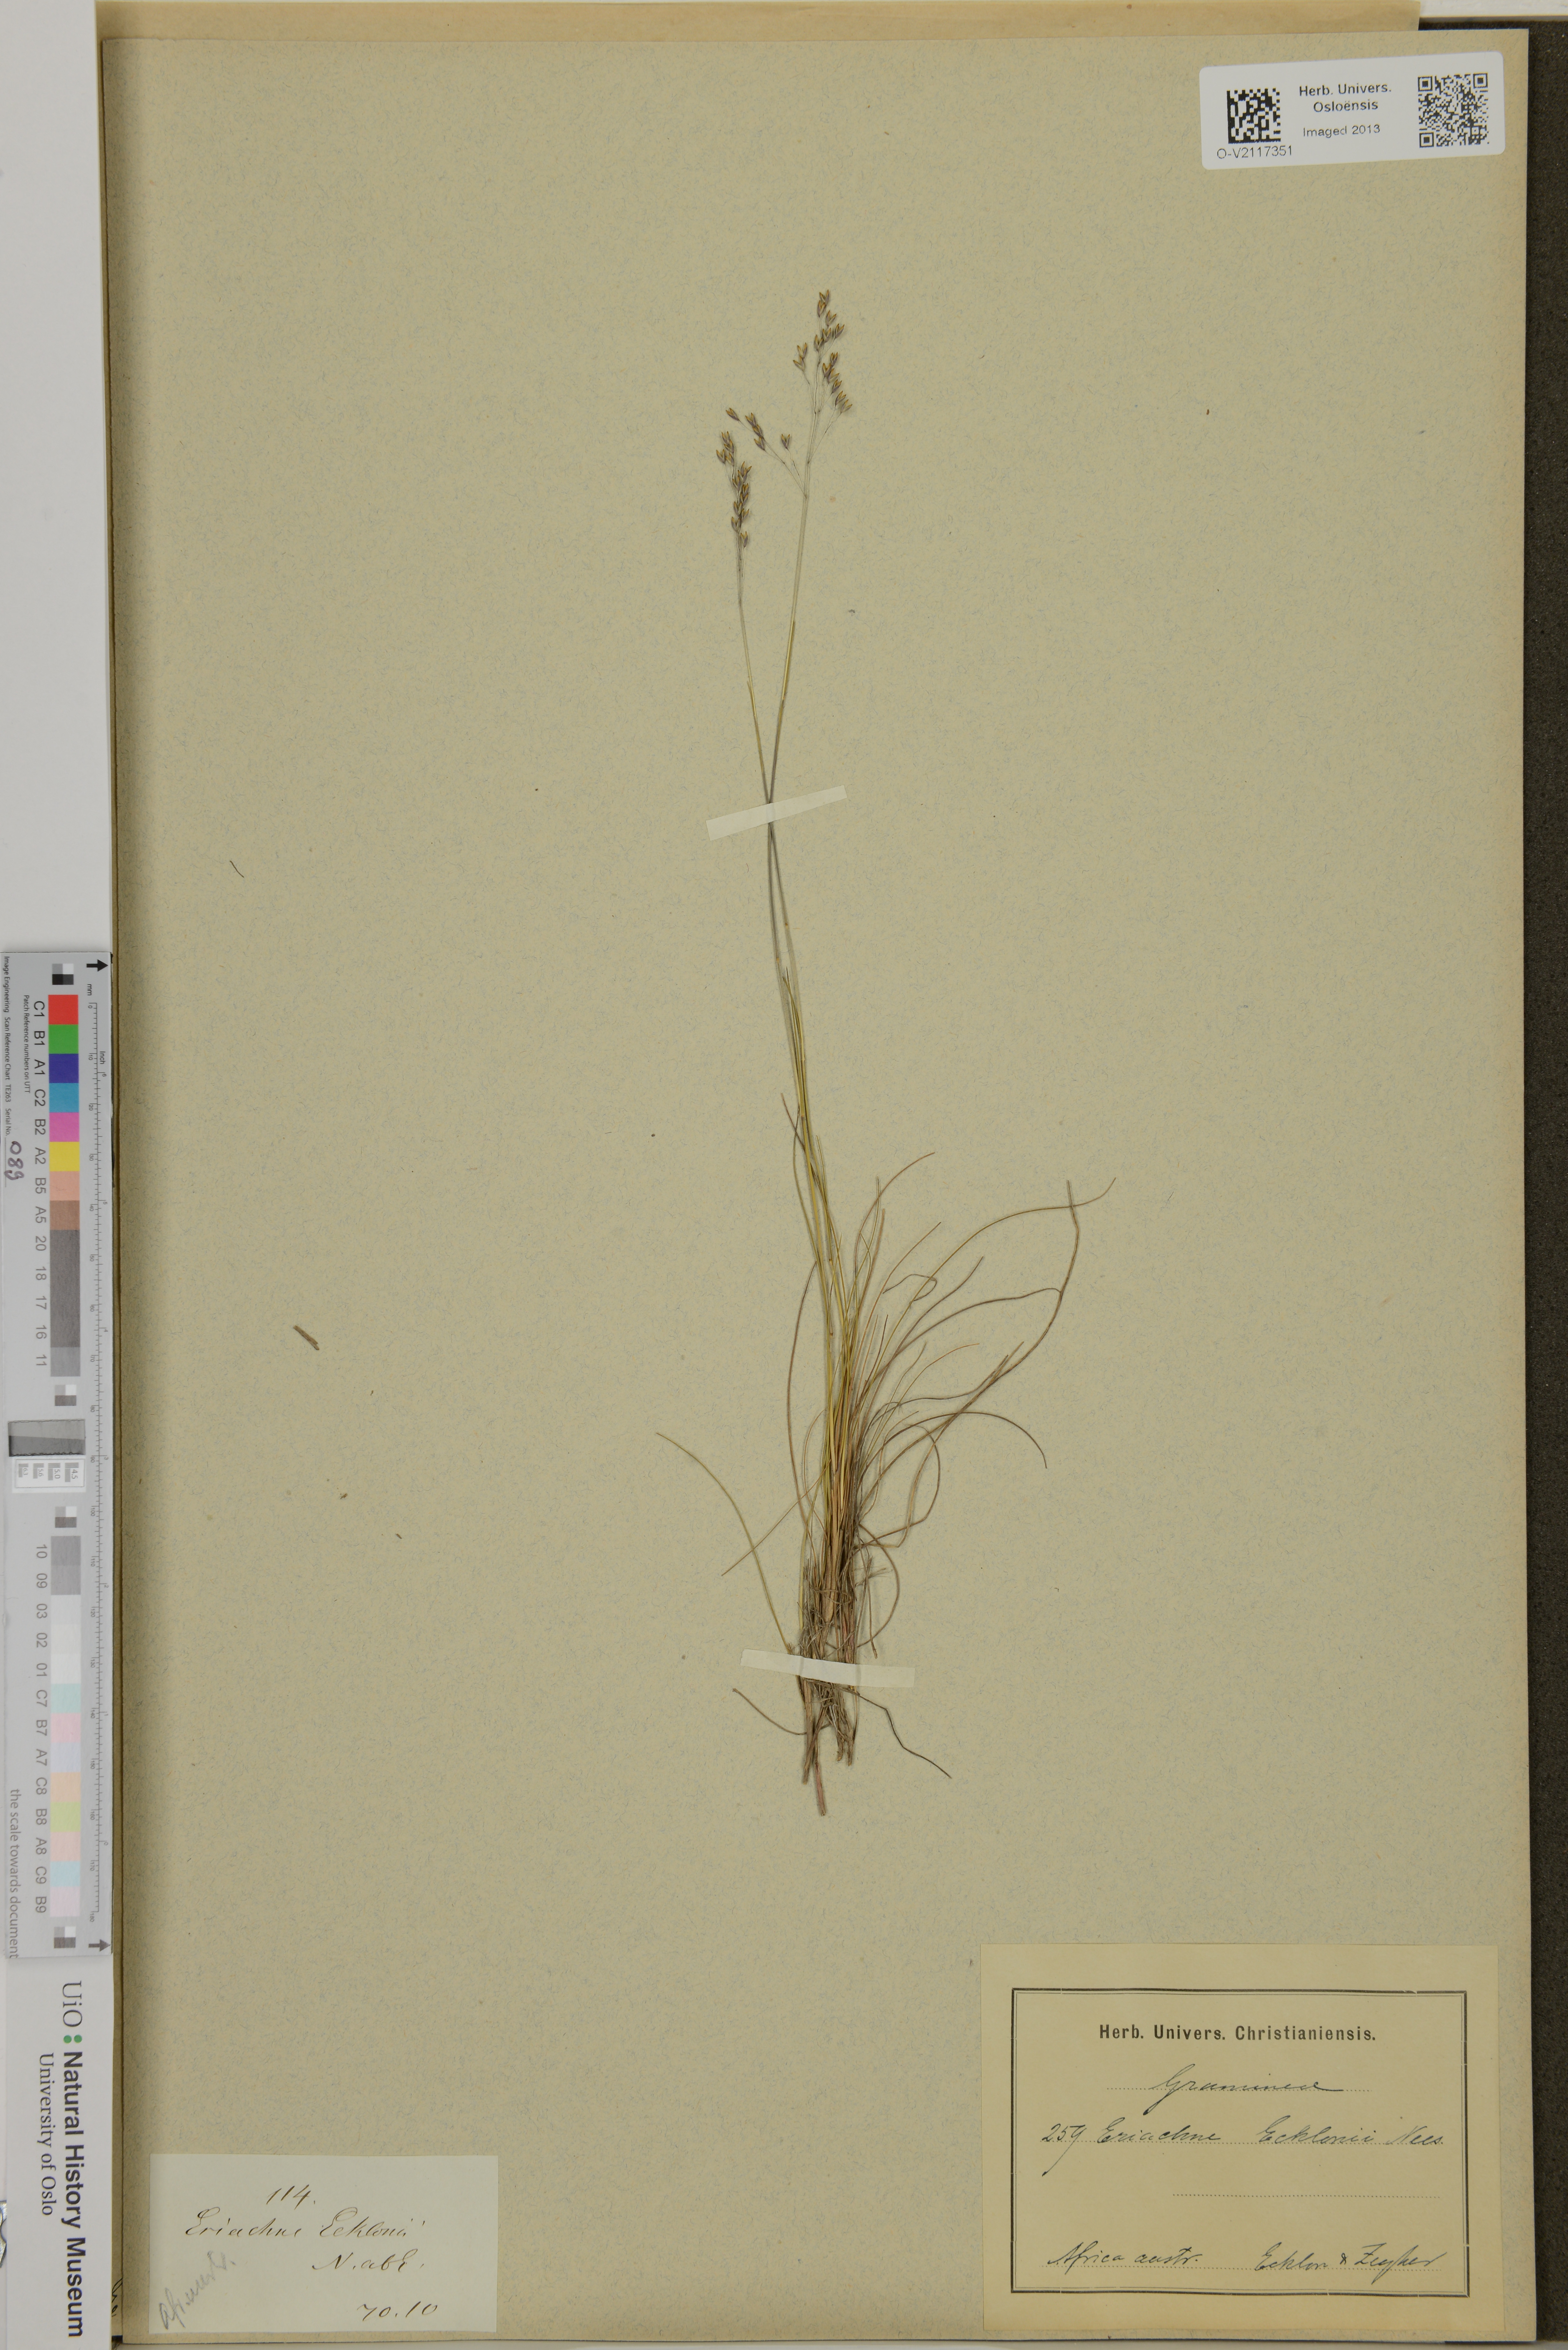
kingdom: Plantae
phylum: Tracheophyta
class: Liliopsida
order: Poales
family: Poaceae
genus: Eriachne
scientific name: Eriachne ecklonii
